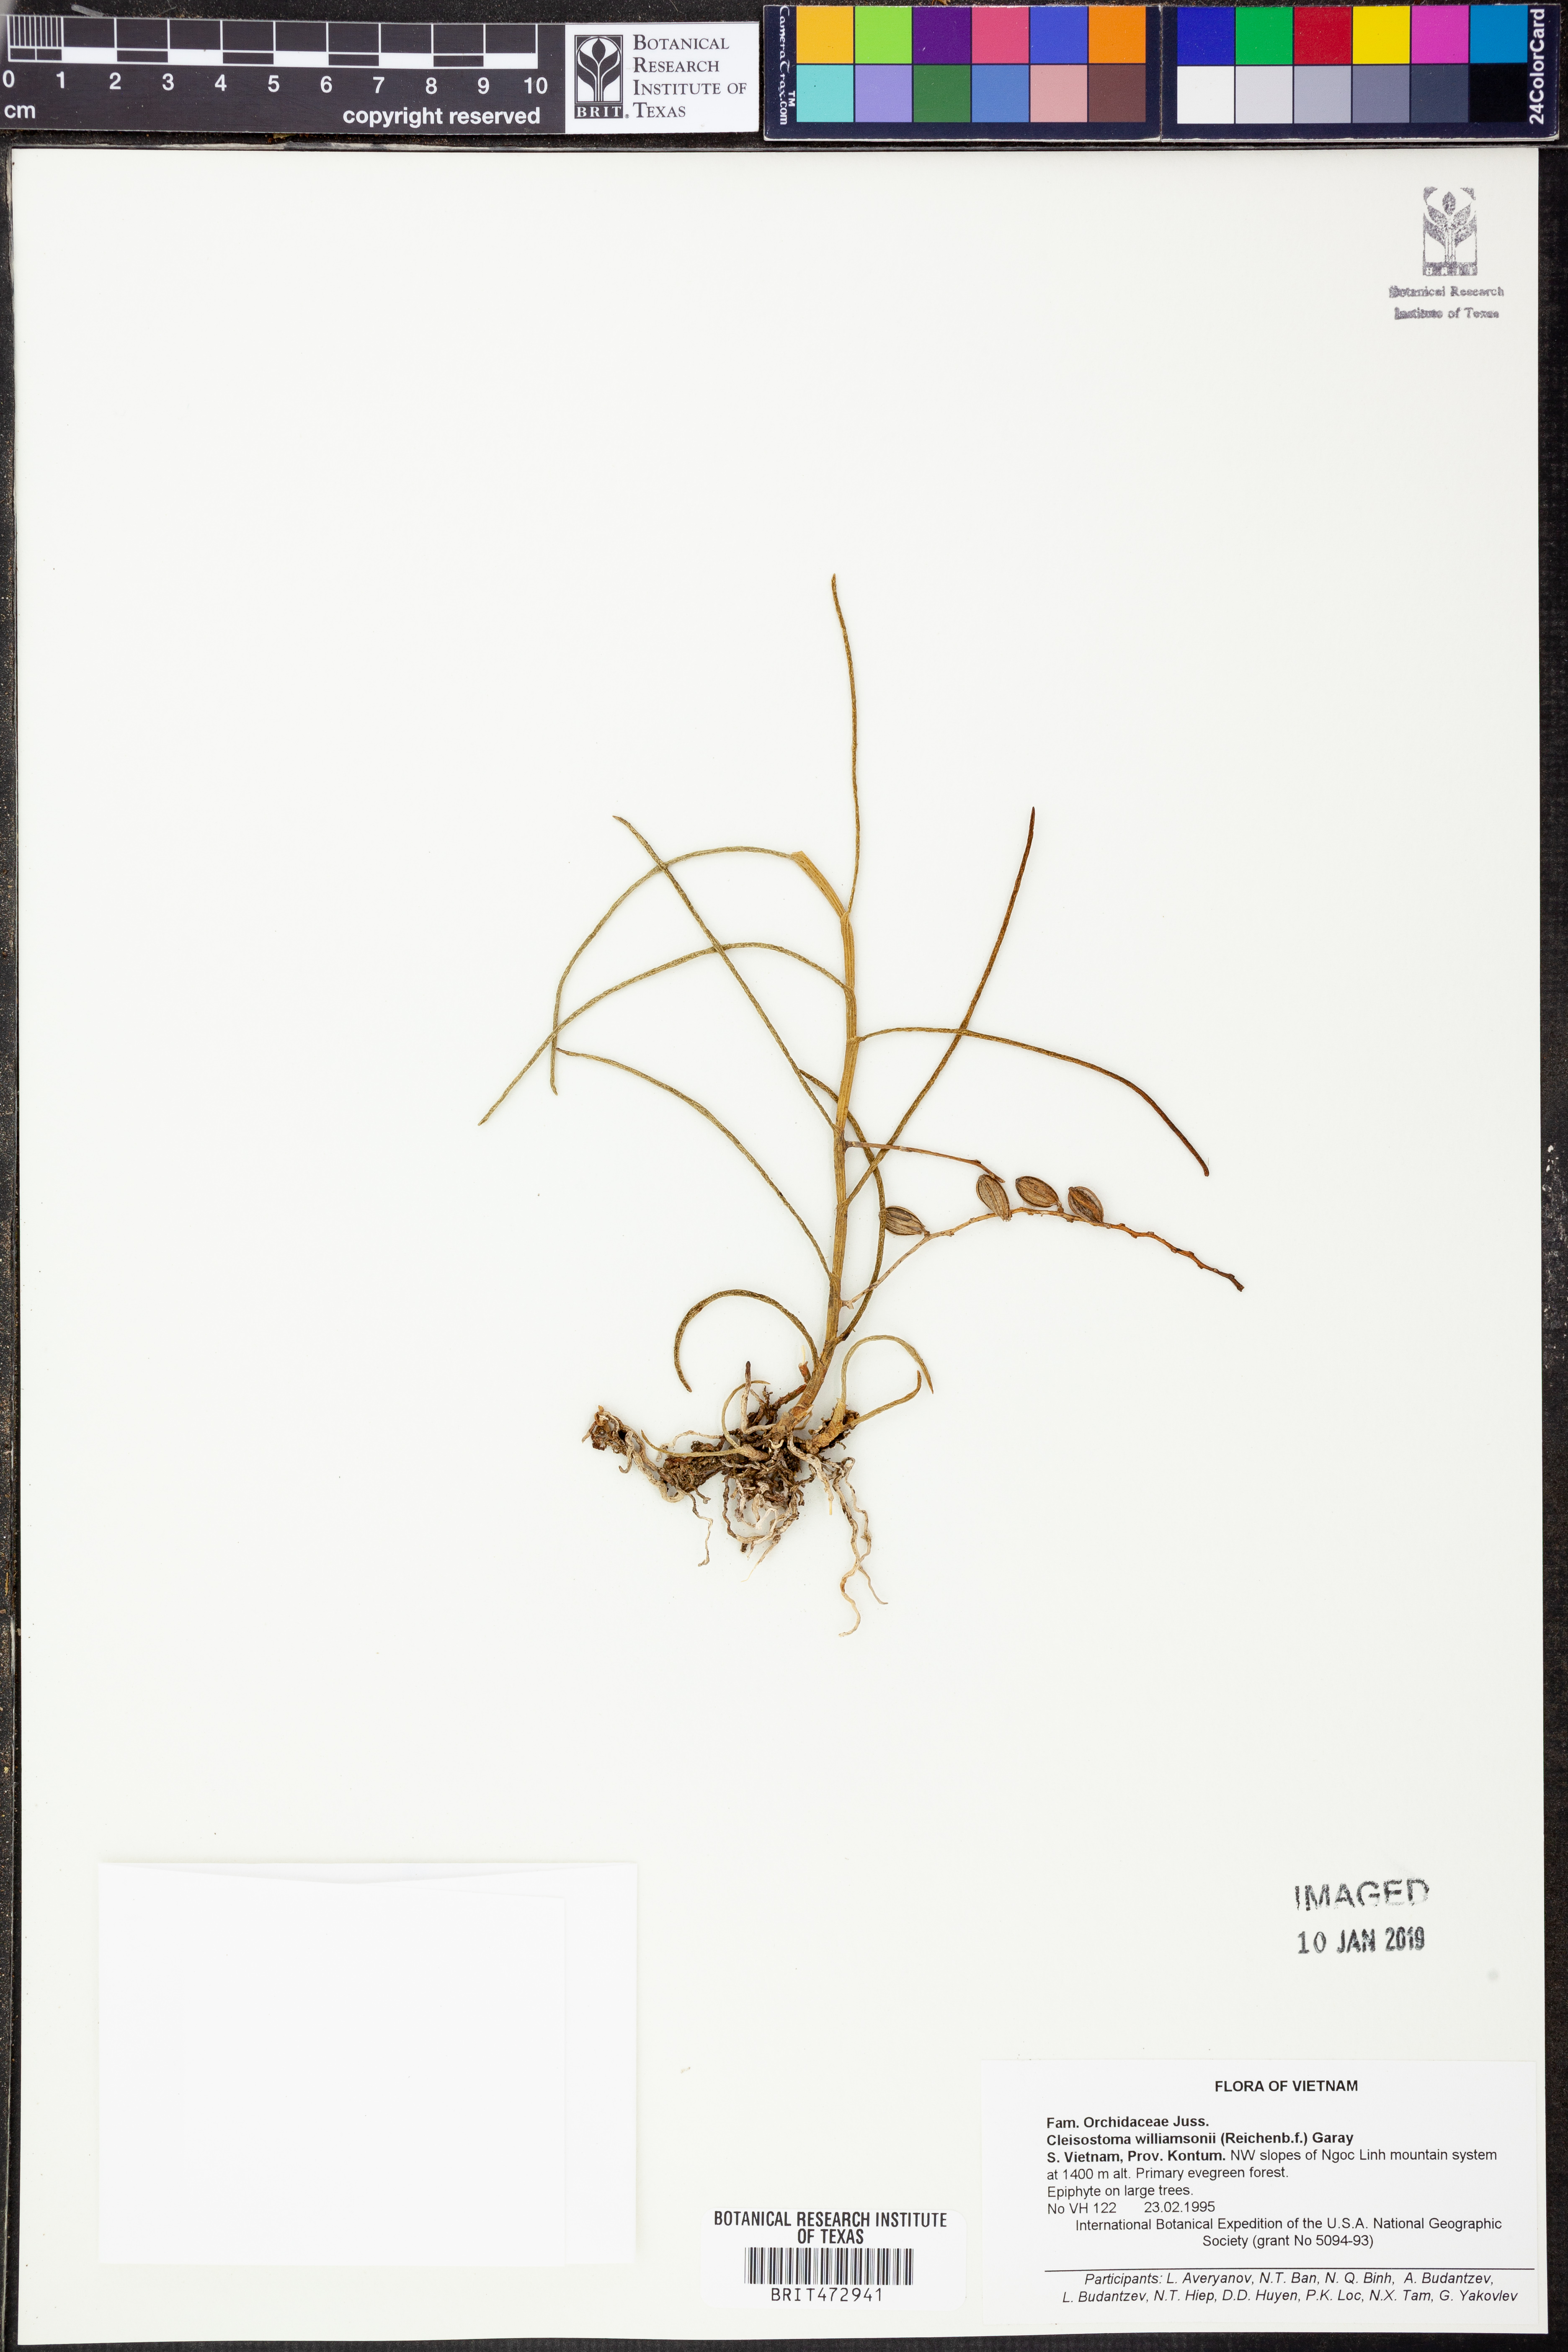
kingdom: Plantae
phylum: Tracheophyta
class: Liliopsida
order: Asparagales
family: Orchidaceae
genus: Cleisostoma
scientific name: Cleisostoma williamsonii
